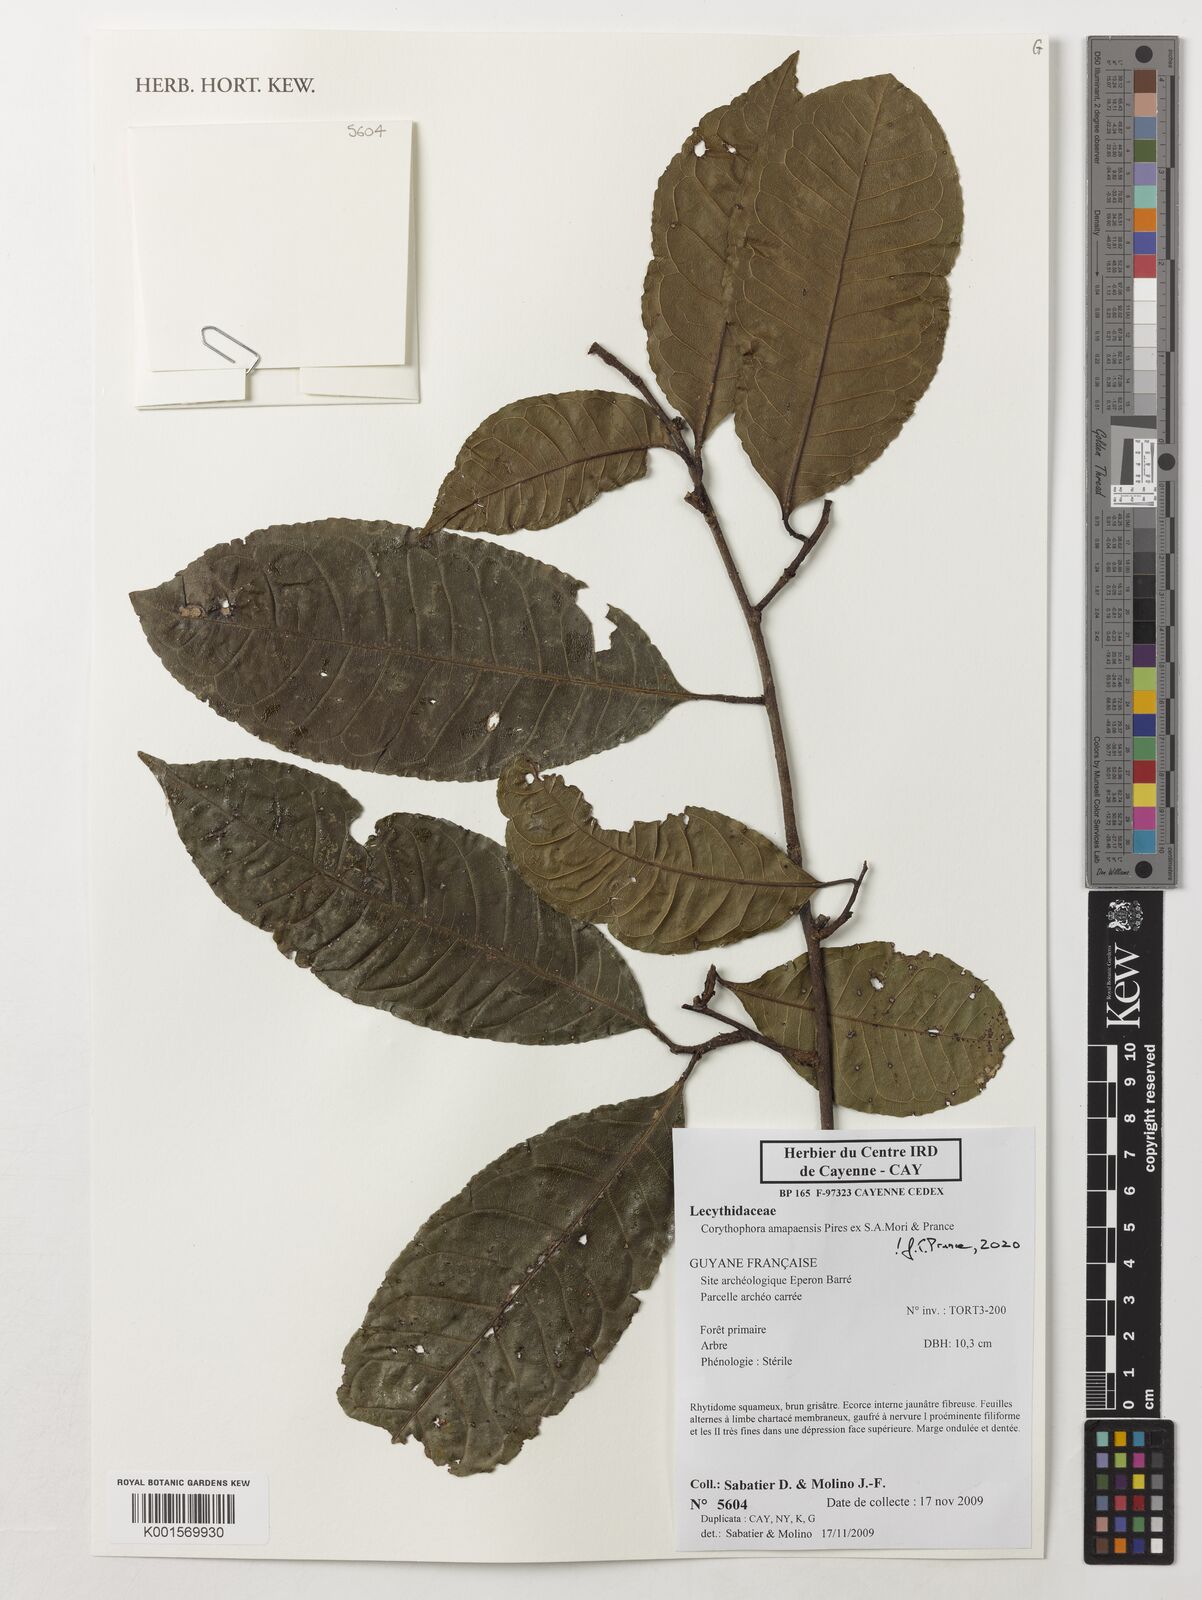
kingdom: Plantae
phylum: Tracheophyta
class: Magnoliopsida
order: Ericales
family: Lecythidaceae
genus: Corythophora
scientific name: Corythophora amapaensis
